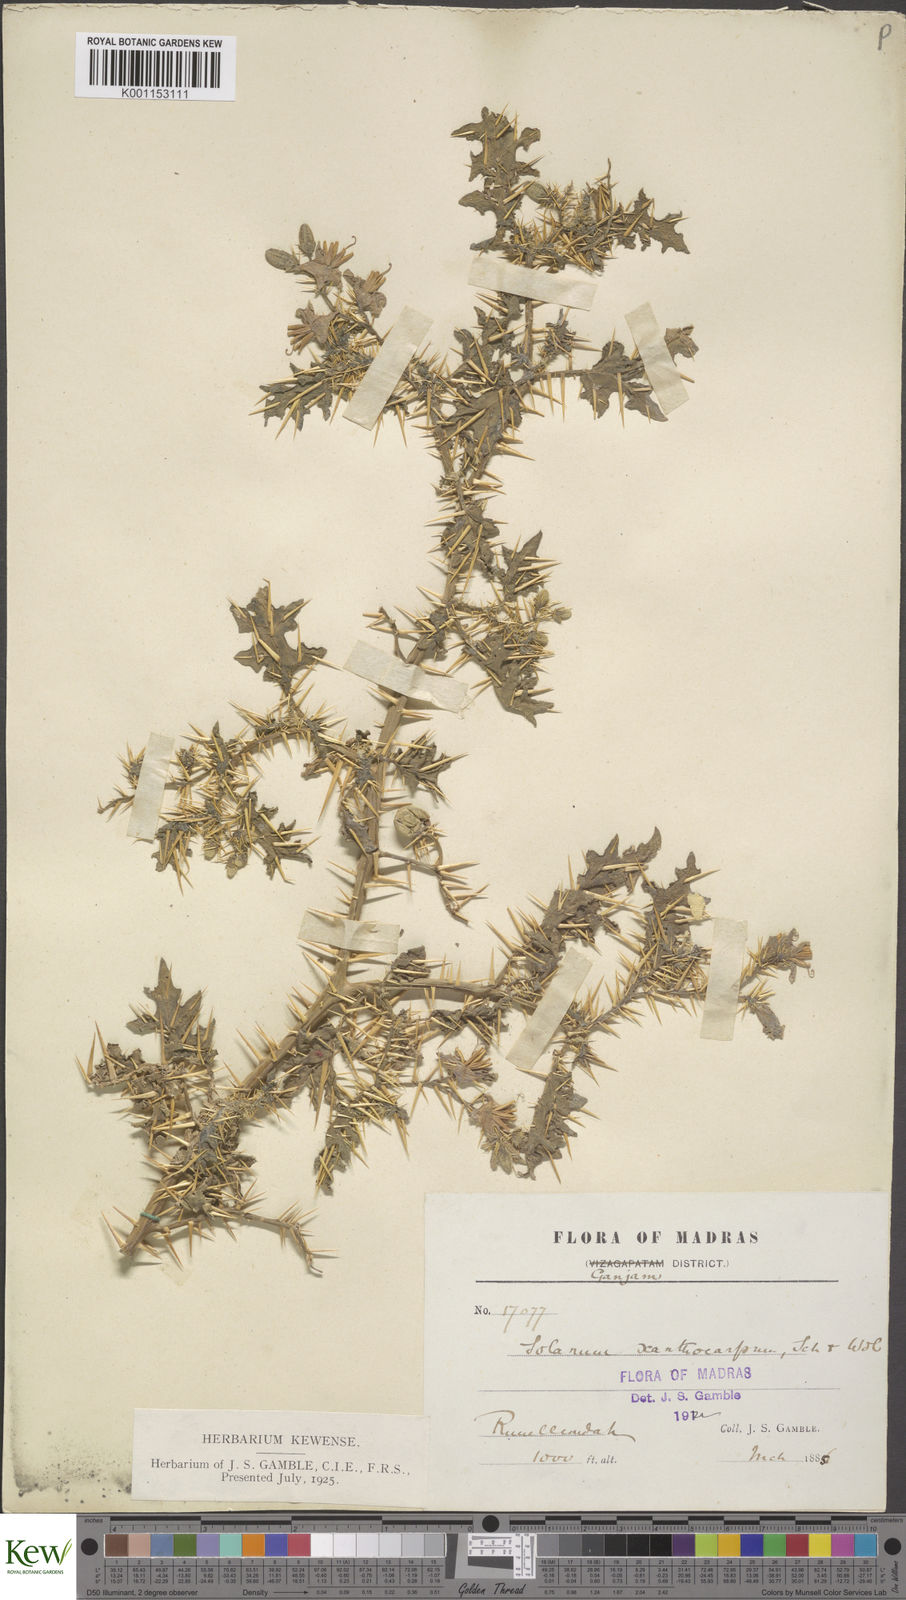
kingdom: Plantae
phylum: Tracheophyta
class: Magnoliopsida
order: Solanales
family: Solanaceae
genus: Solanum
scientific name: Solanum virginianum
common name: Surattense nightshade
